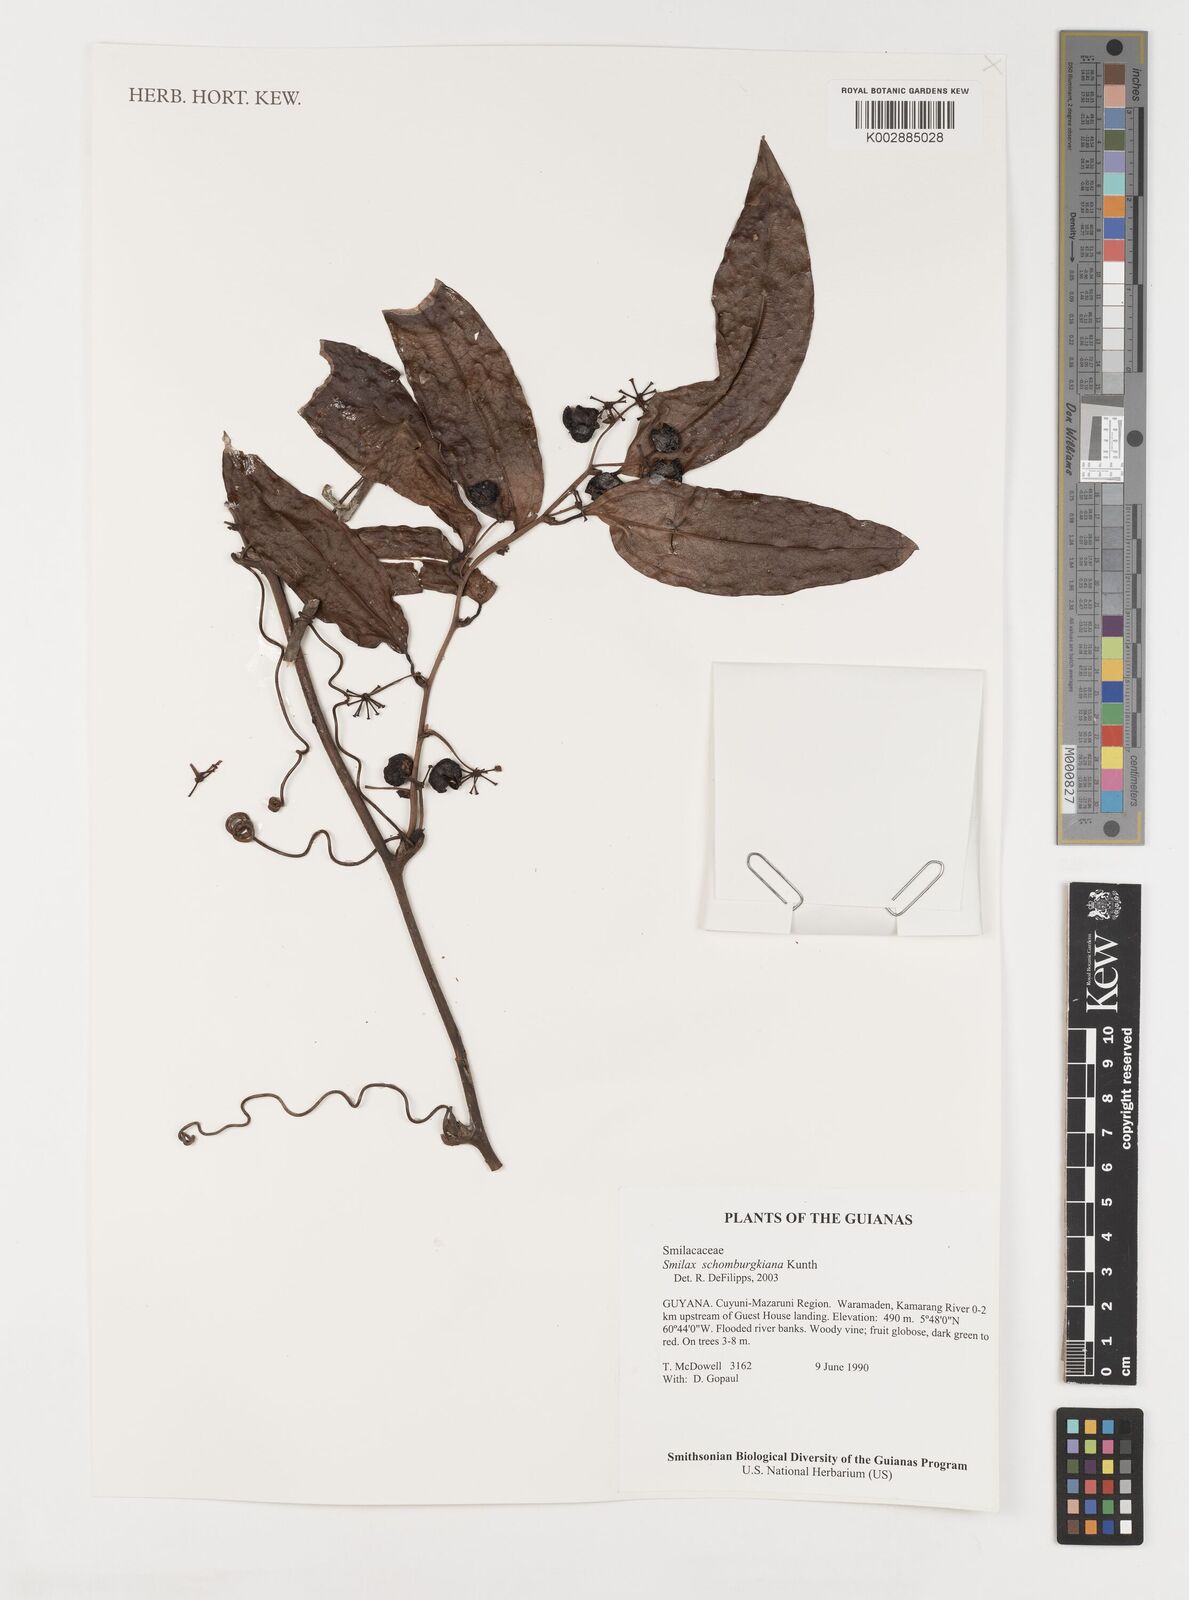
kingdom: Plantae
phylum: Tracheophyta
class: Liliopsida
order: Liliales
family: Smilacaceae
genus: Smilax
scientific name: Smilax schomburgkiana
